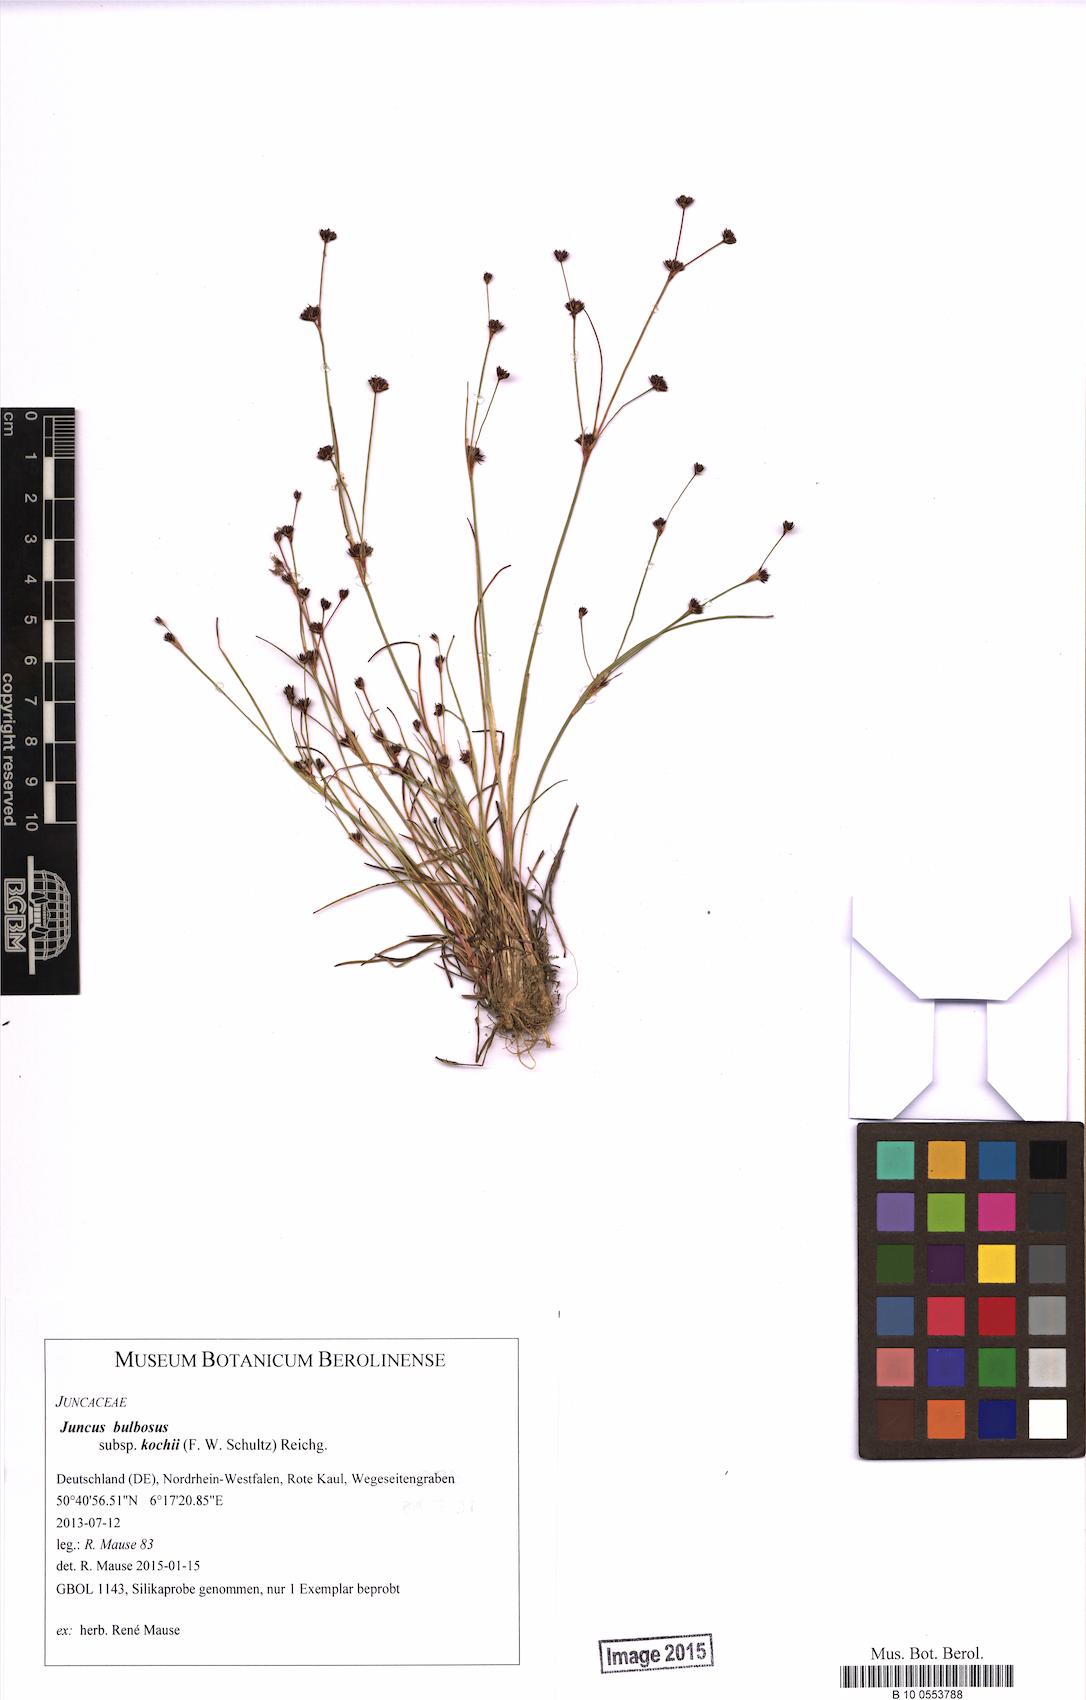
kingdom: Plantae
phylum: Tracheophyta
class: Liliopsida
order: Poales
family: Juncaceae
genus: Juncus
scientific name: Juncus bulbosus
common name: Bulbous rush
